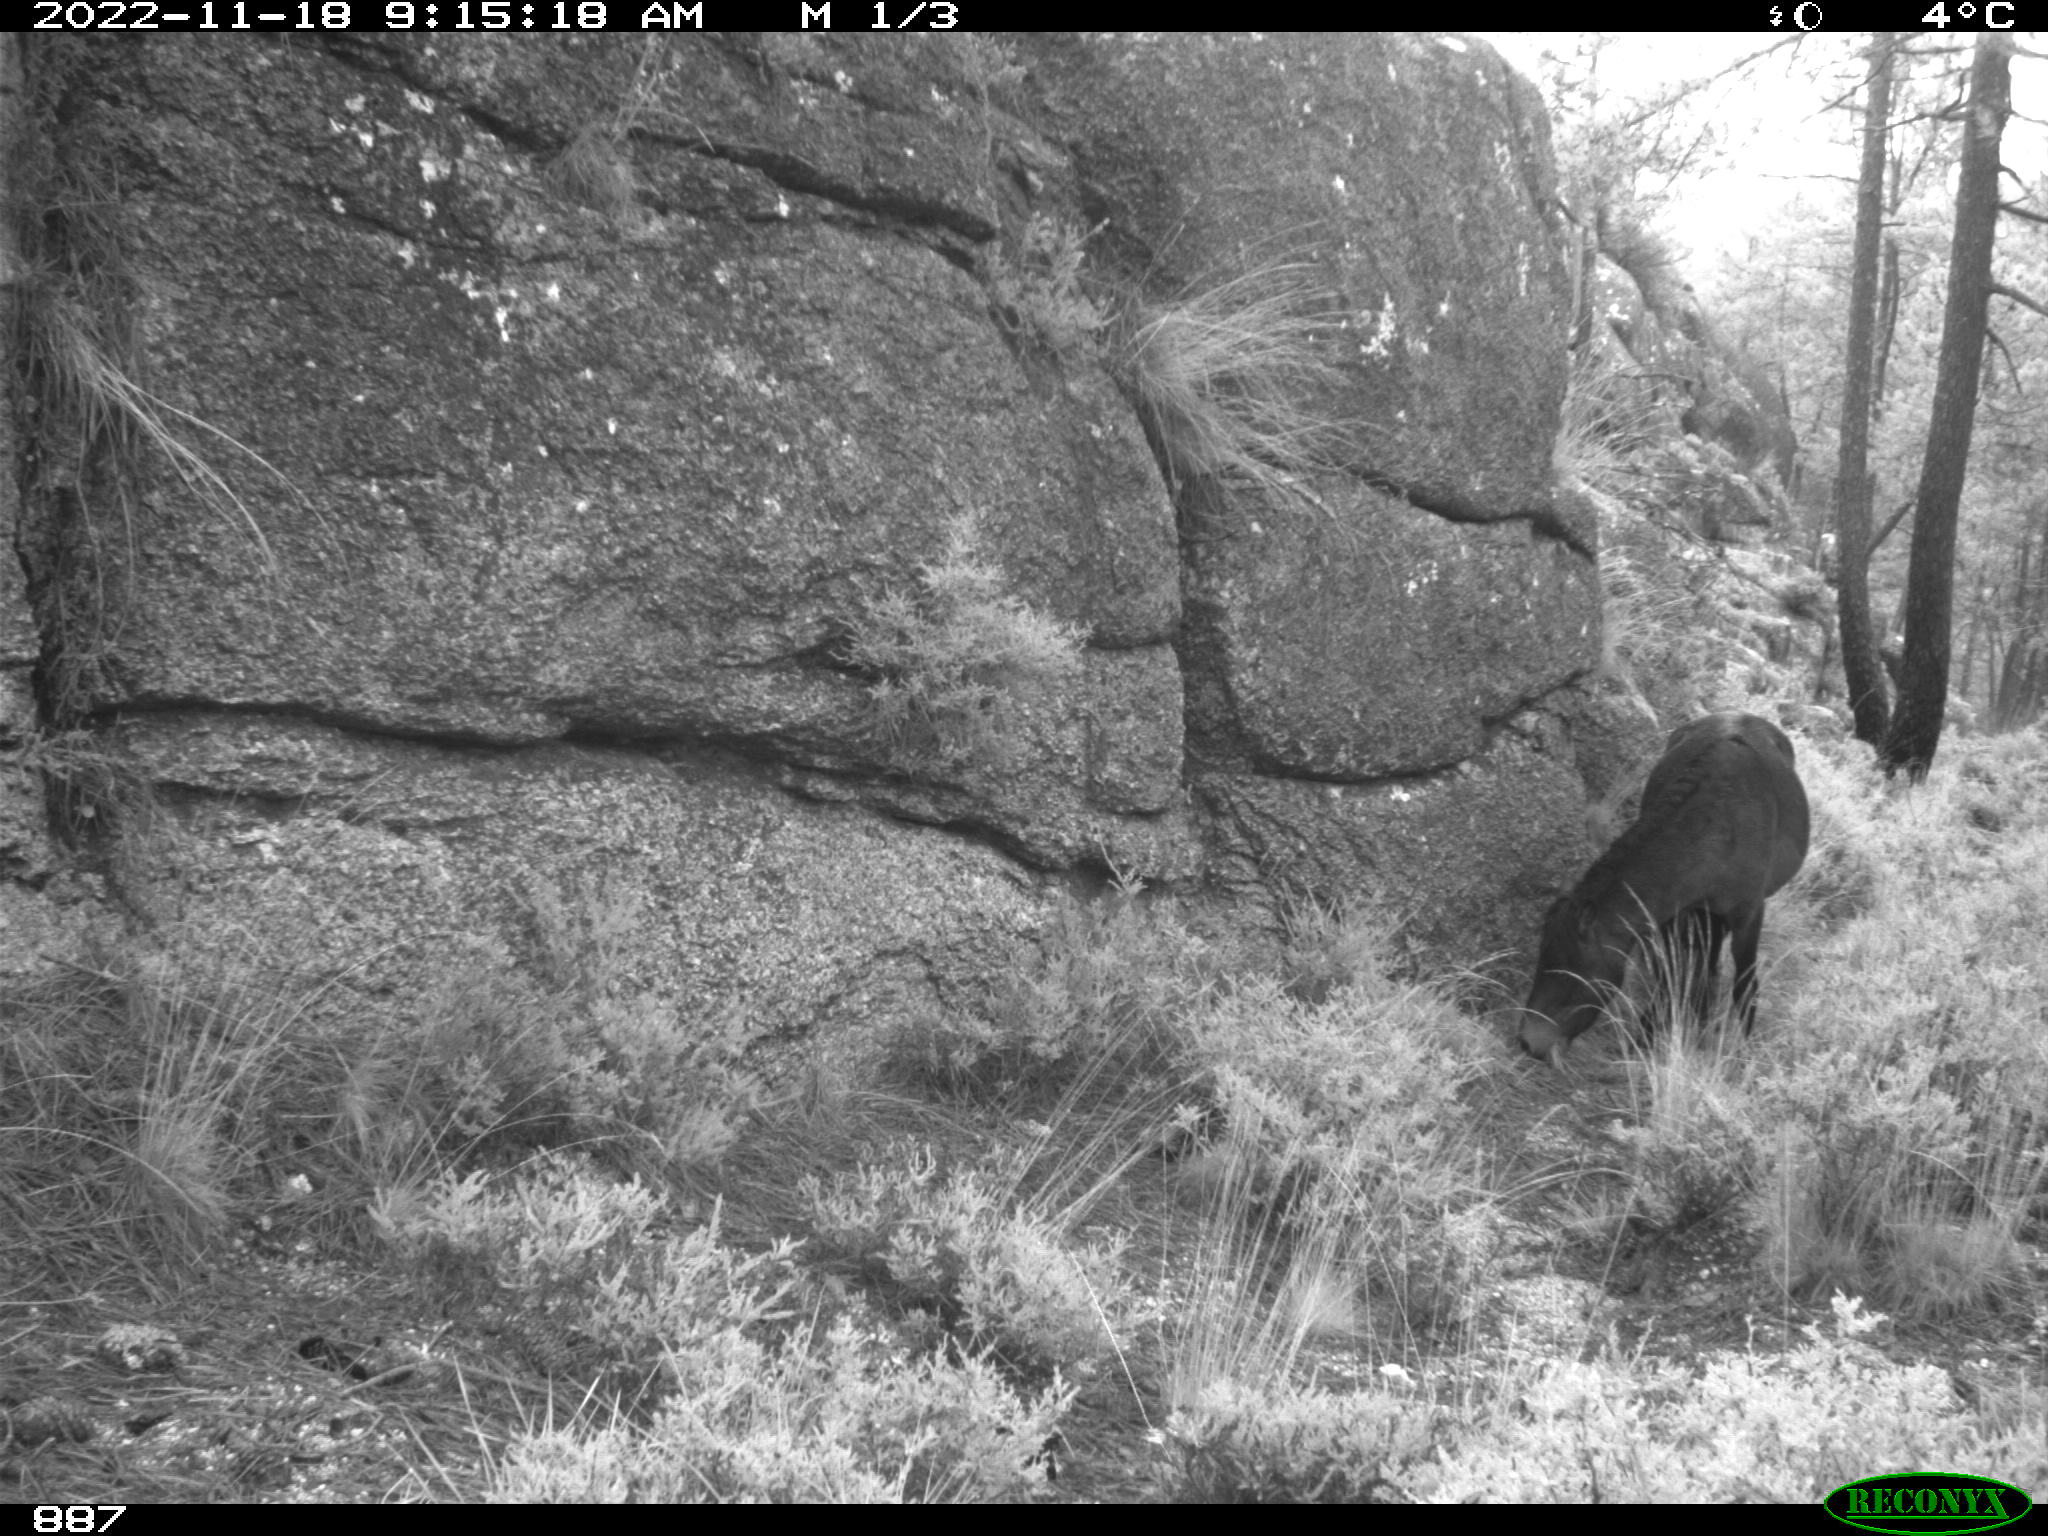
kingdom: Animalia
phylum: Chordata
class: Mammalia
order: Perissodactyla
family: Equidae
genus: Equus
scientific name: Equus caballus
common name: Horse
